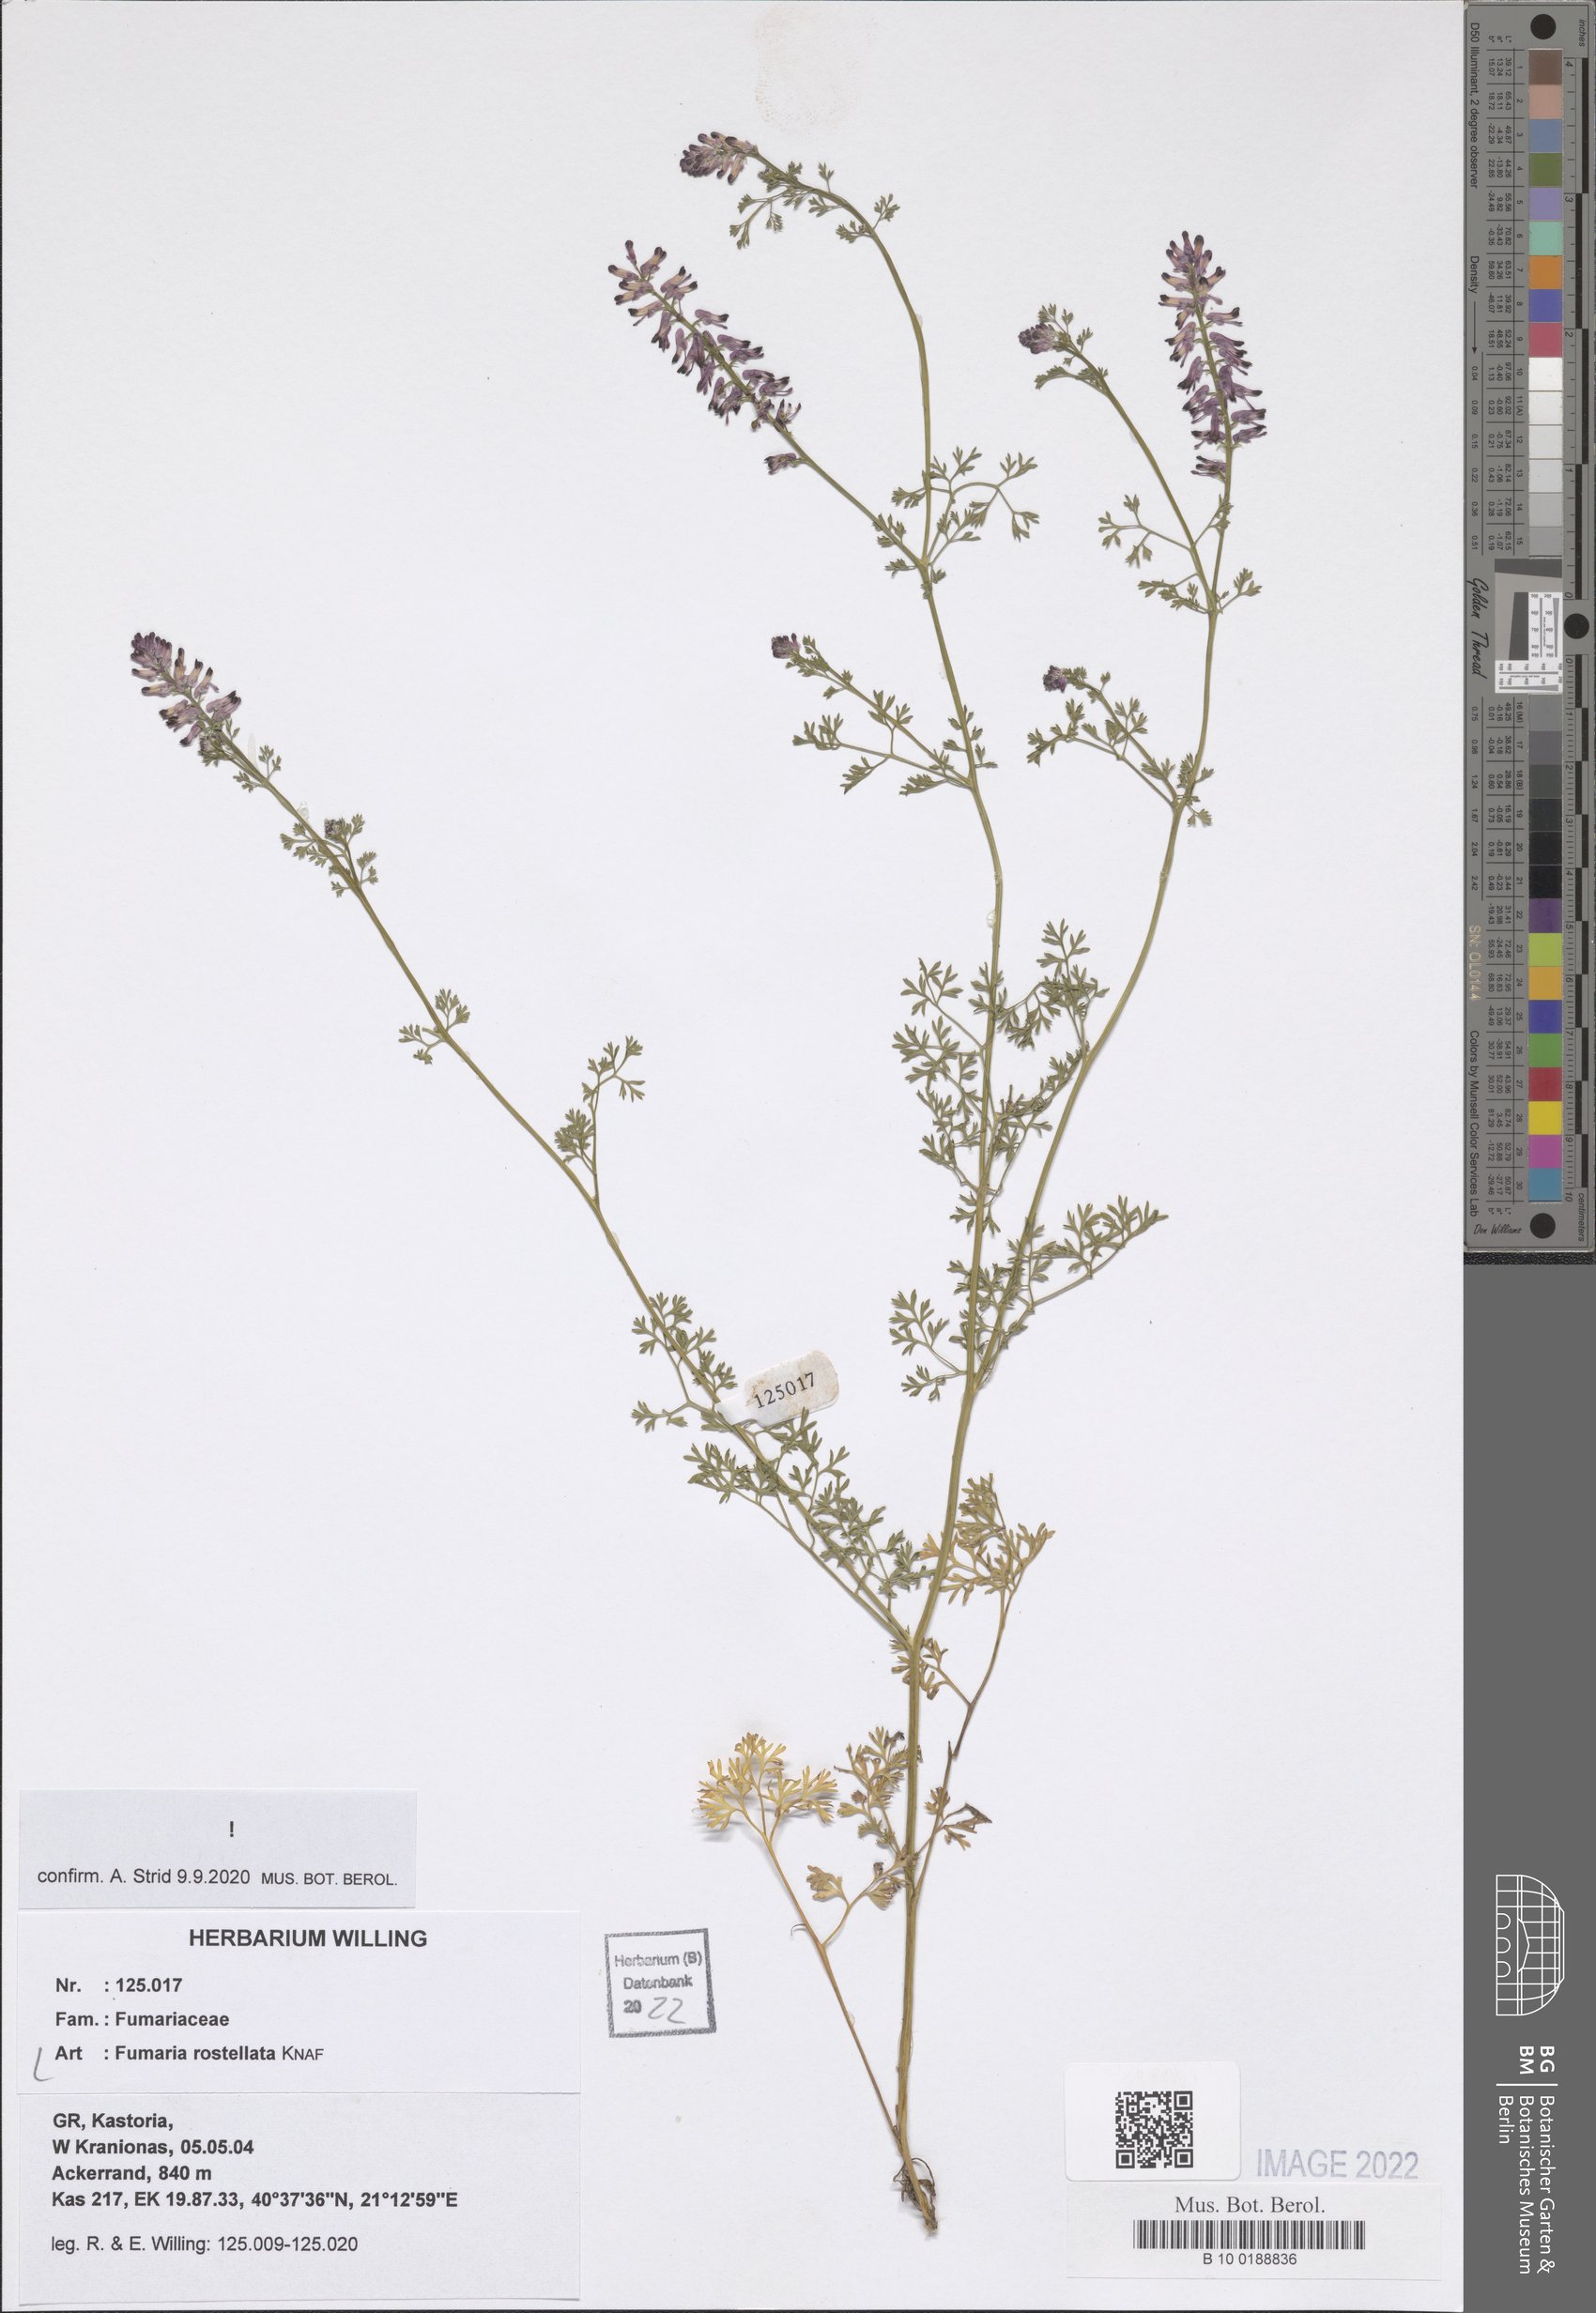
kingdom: Plantae
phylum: Tracheophyta
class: Magnoliopsida
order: Ranunculales
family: Papaveraceae
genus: Fumaria
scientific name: Fumaria rostellata
